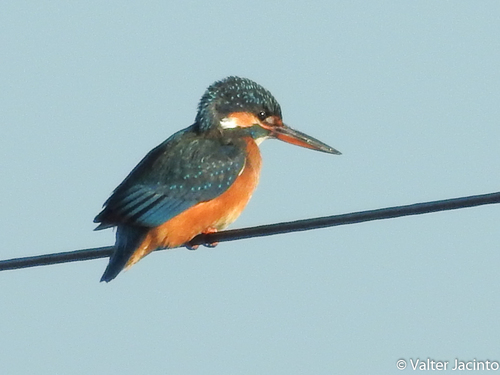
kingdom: Animalia
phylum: Chordata
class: Aves
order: Coraciiformes
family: Alcedinidae
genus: Alcedo
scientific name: Alcedo atthis
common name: Common kingfisher
